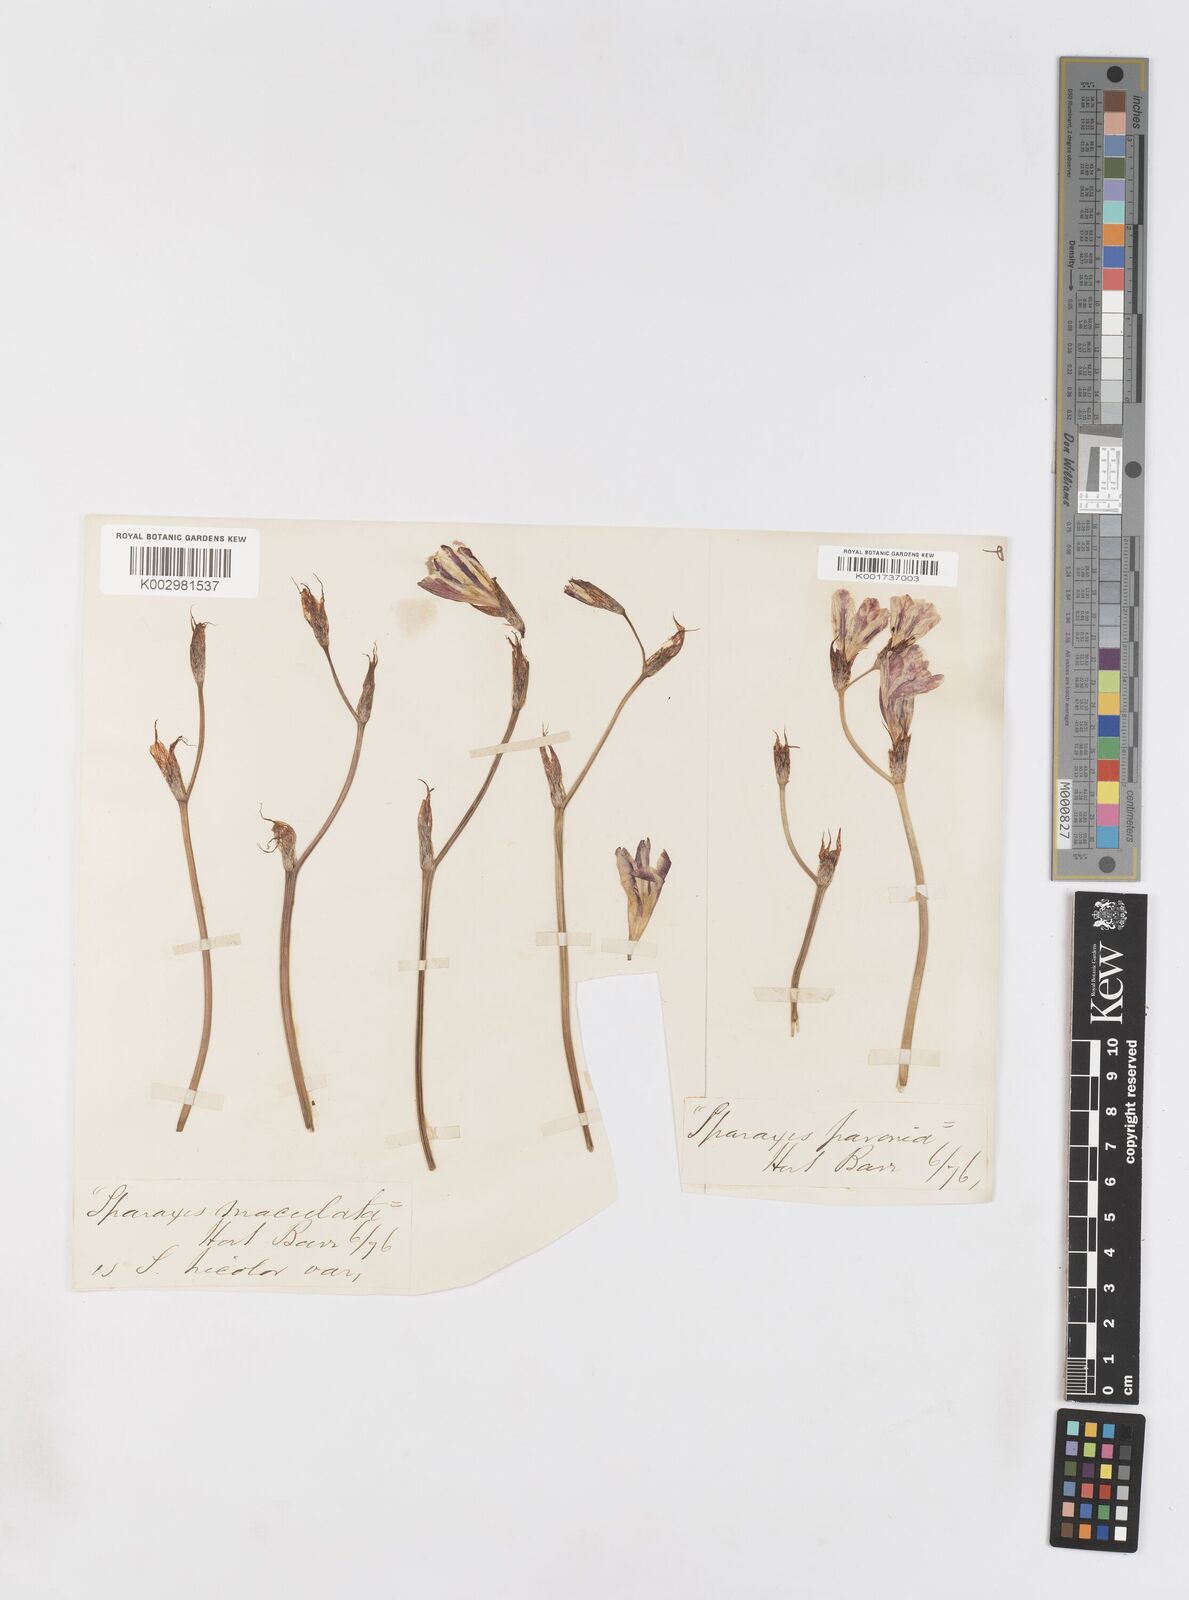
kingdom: Plantae
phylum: Tracheophyta
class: Liliopsida
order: Asparagales
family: Iridaceae
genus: Sparaxis
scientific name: Sparaxis
